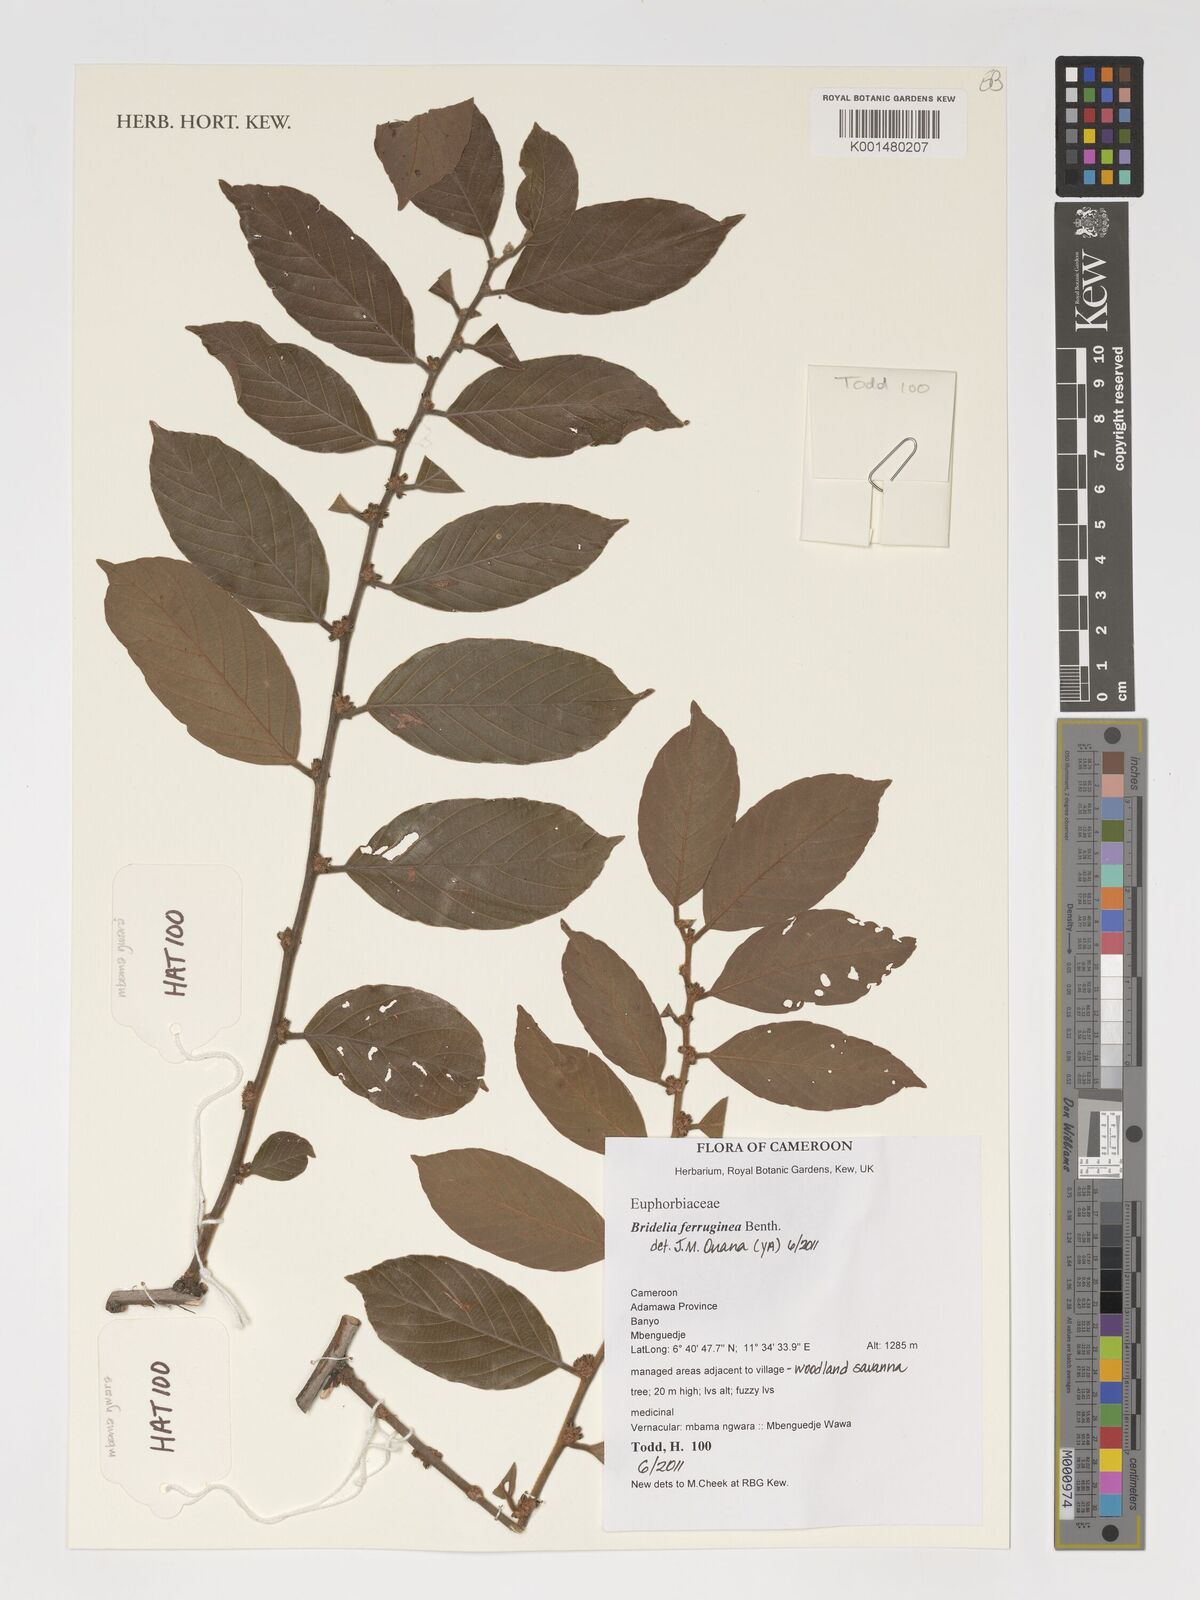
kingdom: Plantae
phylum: Tracheophyta
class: Magnoliopsida
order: Malpighiales
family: Phyllanthaceae
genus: Bridelia
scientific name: Bridelia ferruginea
